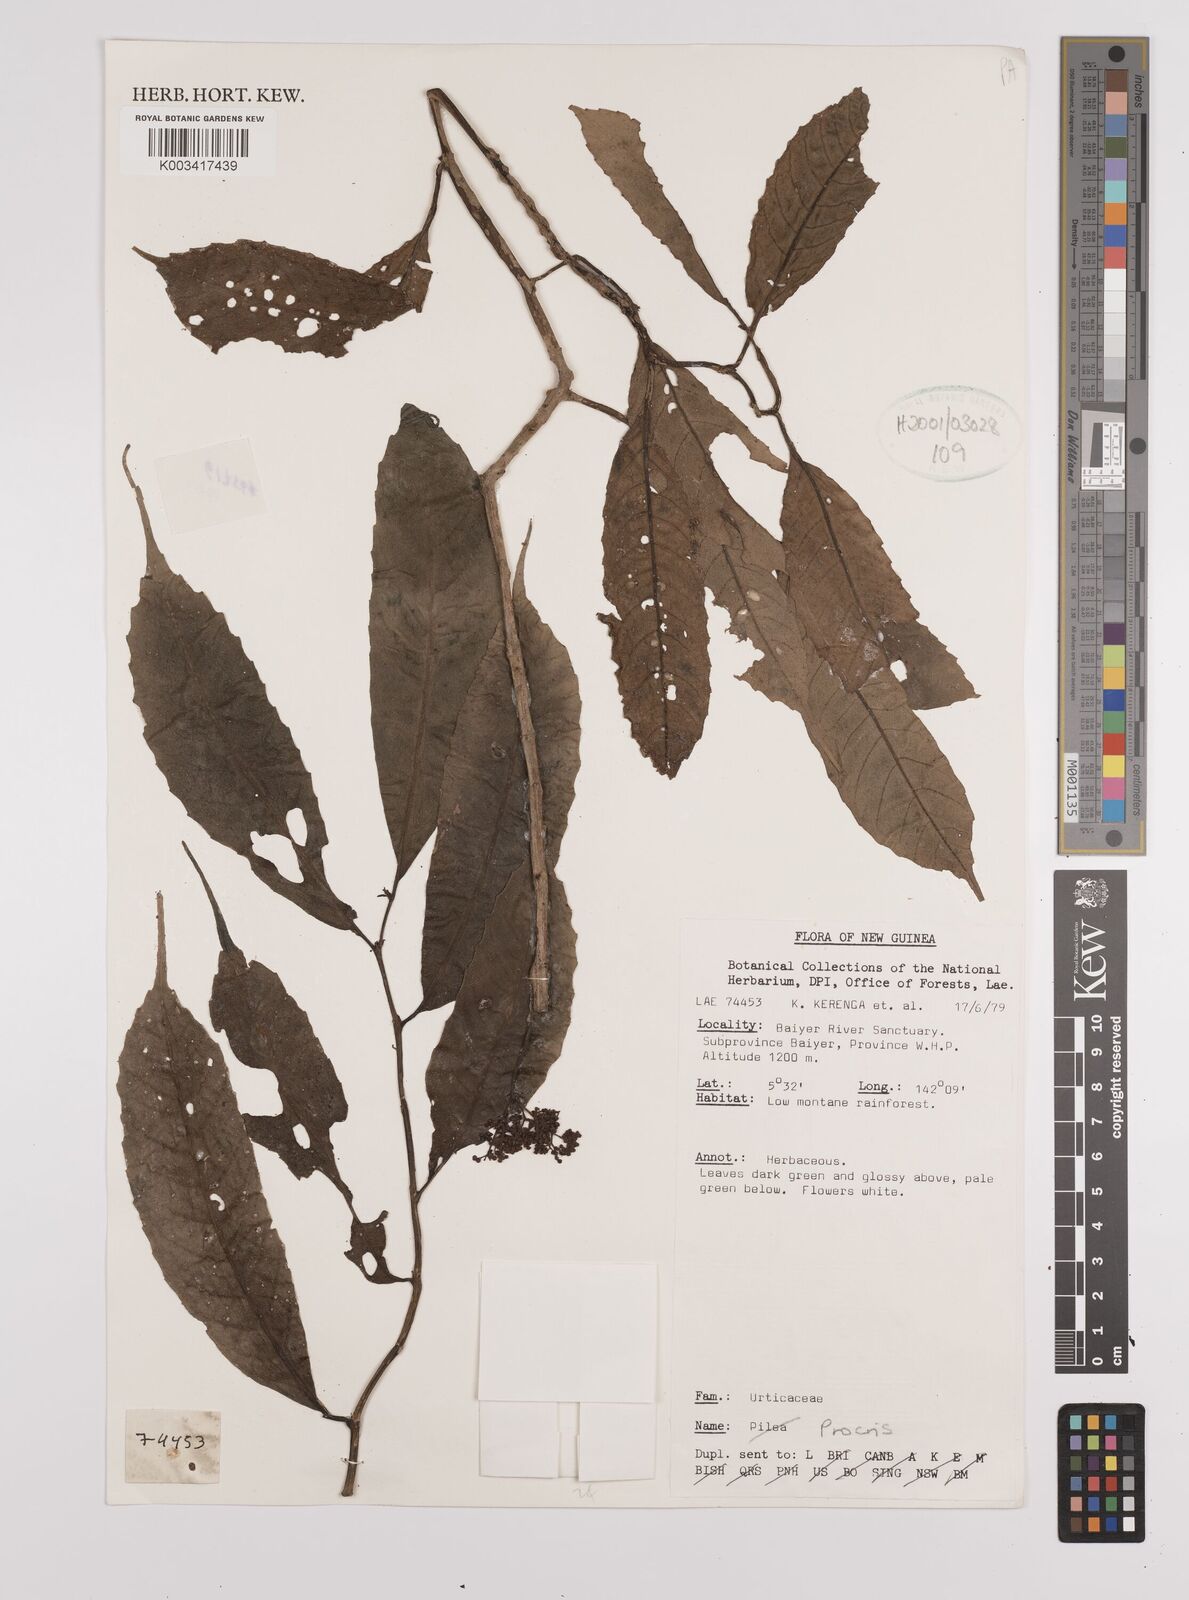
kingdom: Plantae
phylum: Tracheophyta
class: Magnoliopsida
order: Rosales
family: Urticaceae
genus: Procris
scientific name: Procris
